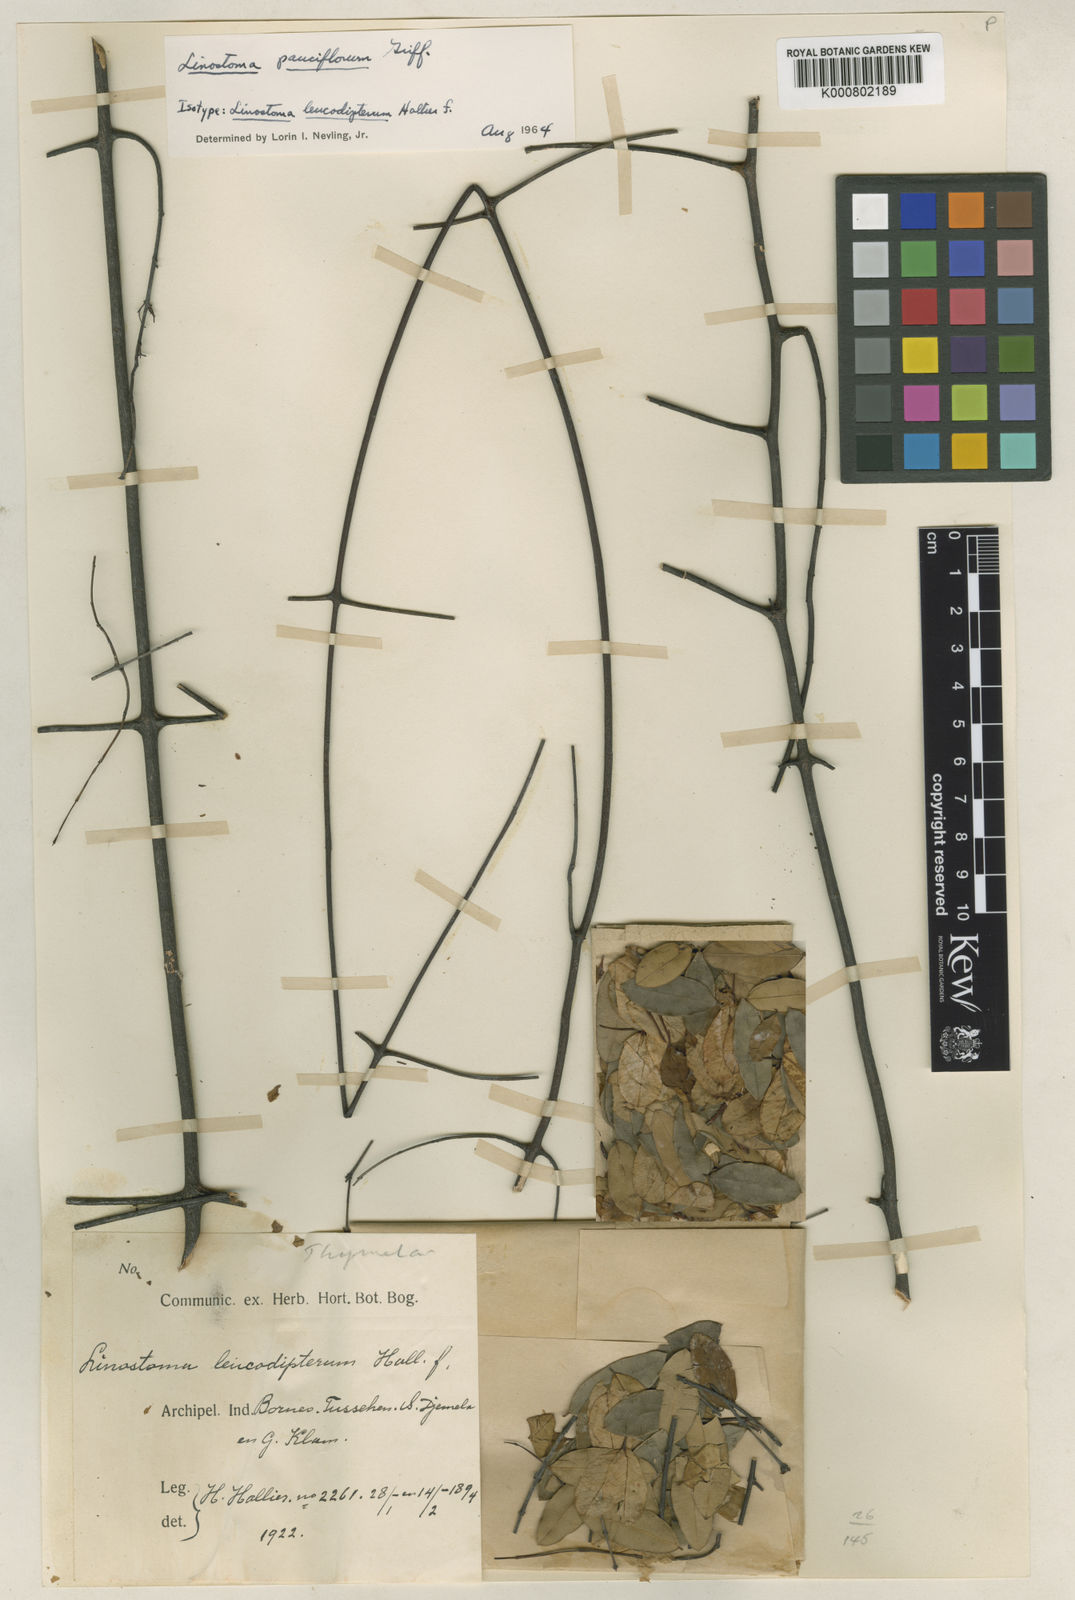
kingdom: Plantae
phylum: Tracheophyta
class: Magnoliopsida
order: Malvales
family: Thymelaeaceae
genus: Linostoma
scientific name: Linostoma pauciflorum
